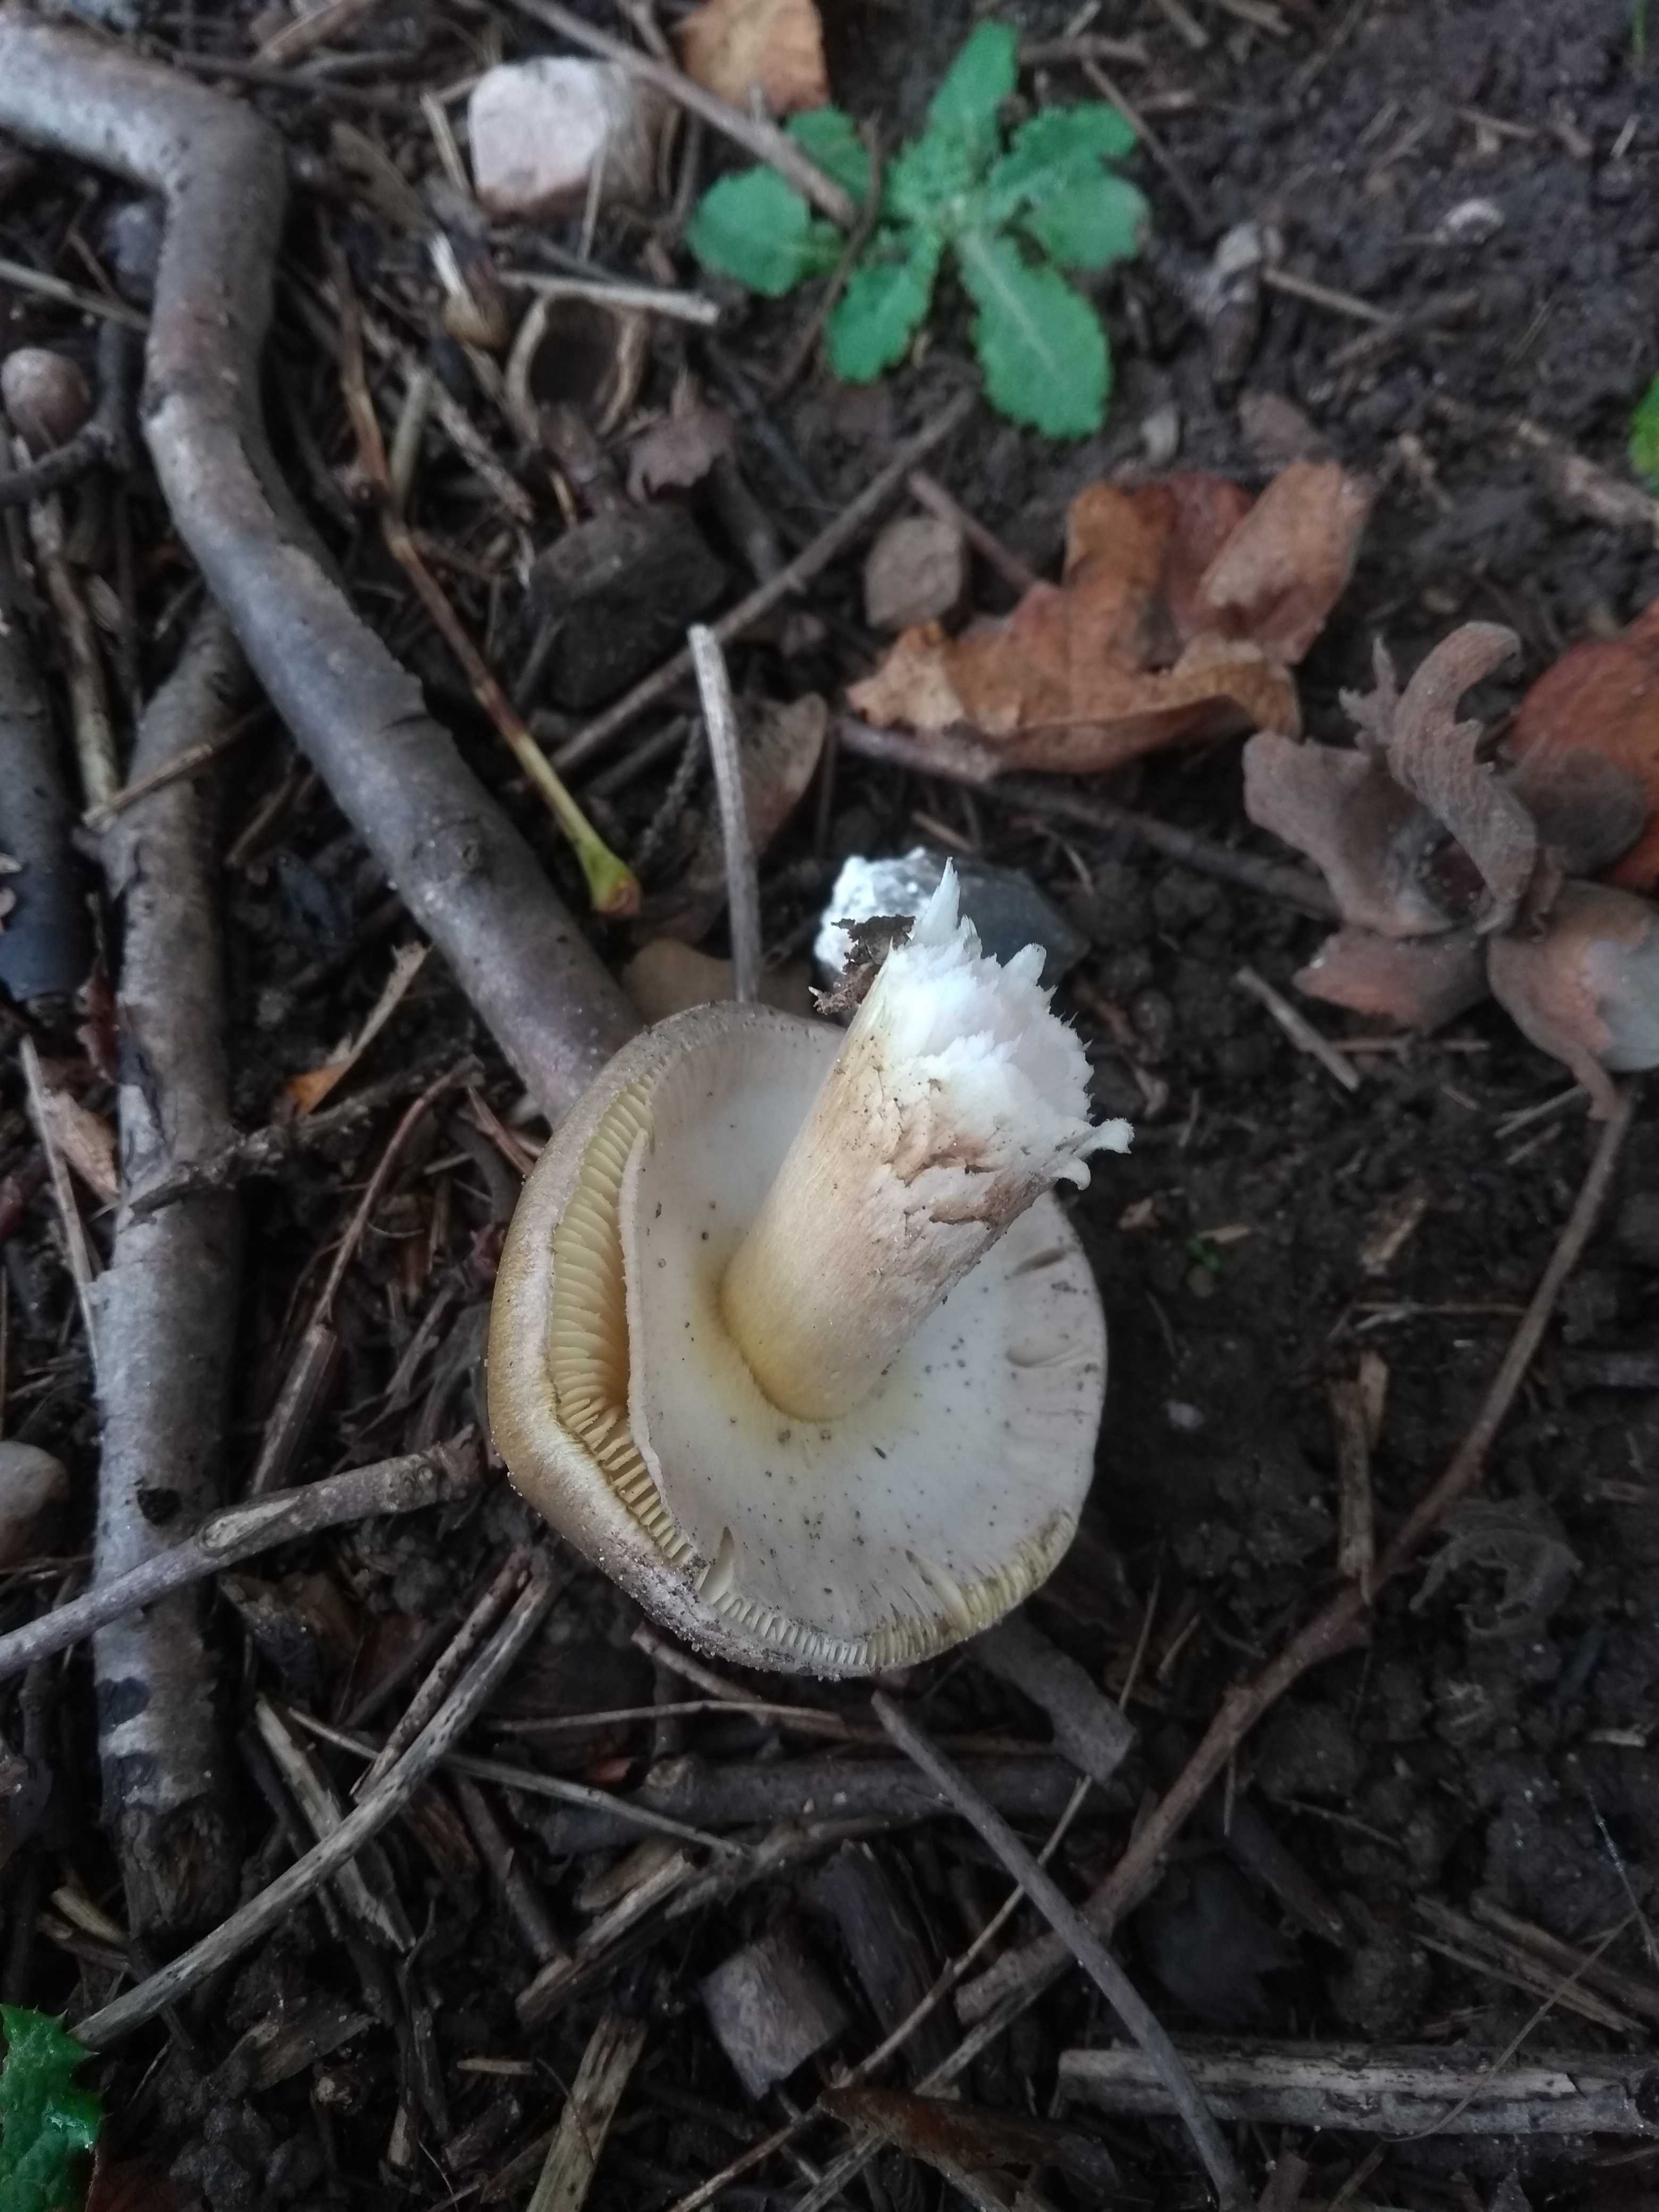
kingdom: Fungi
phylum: Basidiomycota
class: Agaricomycetes
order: Agaricales
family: Amanitaceae
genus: Amanita
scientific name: Amanita phalloides
